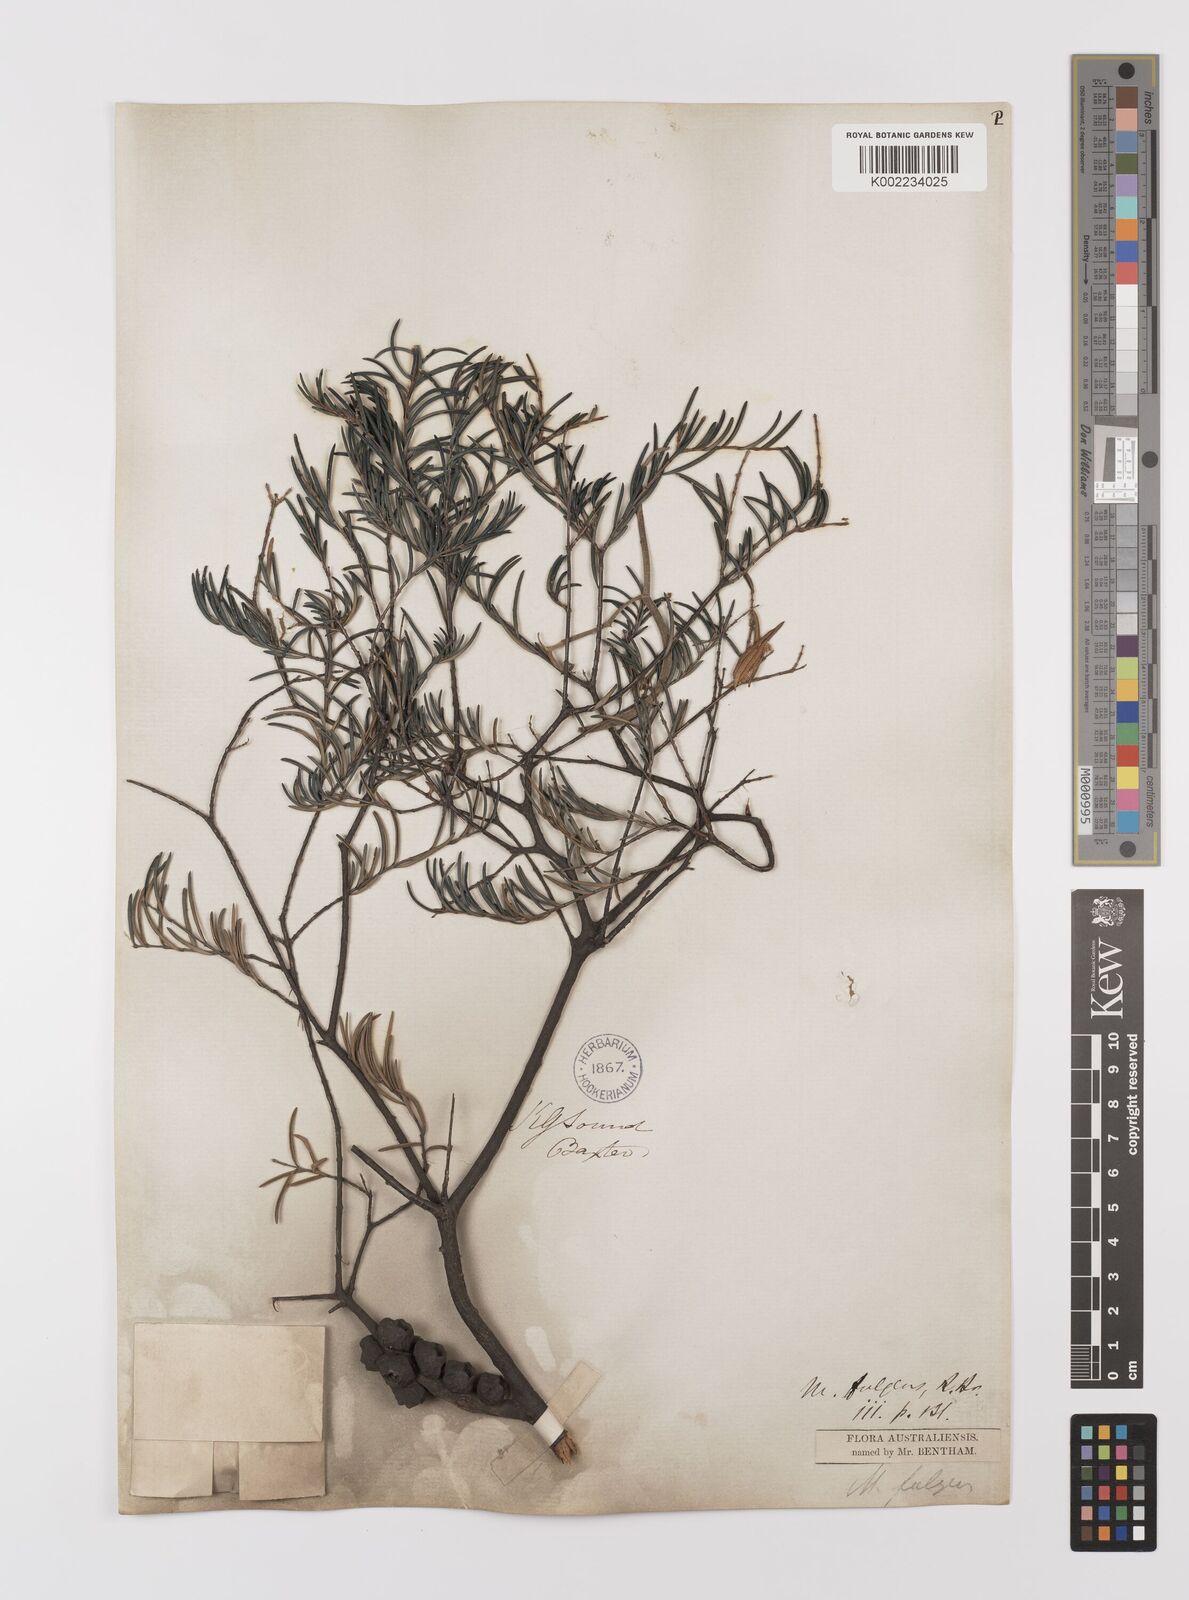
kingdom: Plantae
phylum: Tracheophyta
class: Magnoliopsida
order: Myrtales
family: Myrtaceae
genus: Melaleuca
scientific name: Melaleuca fulgens
